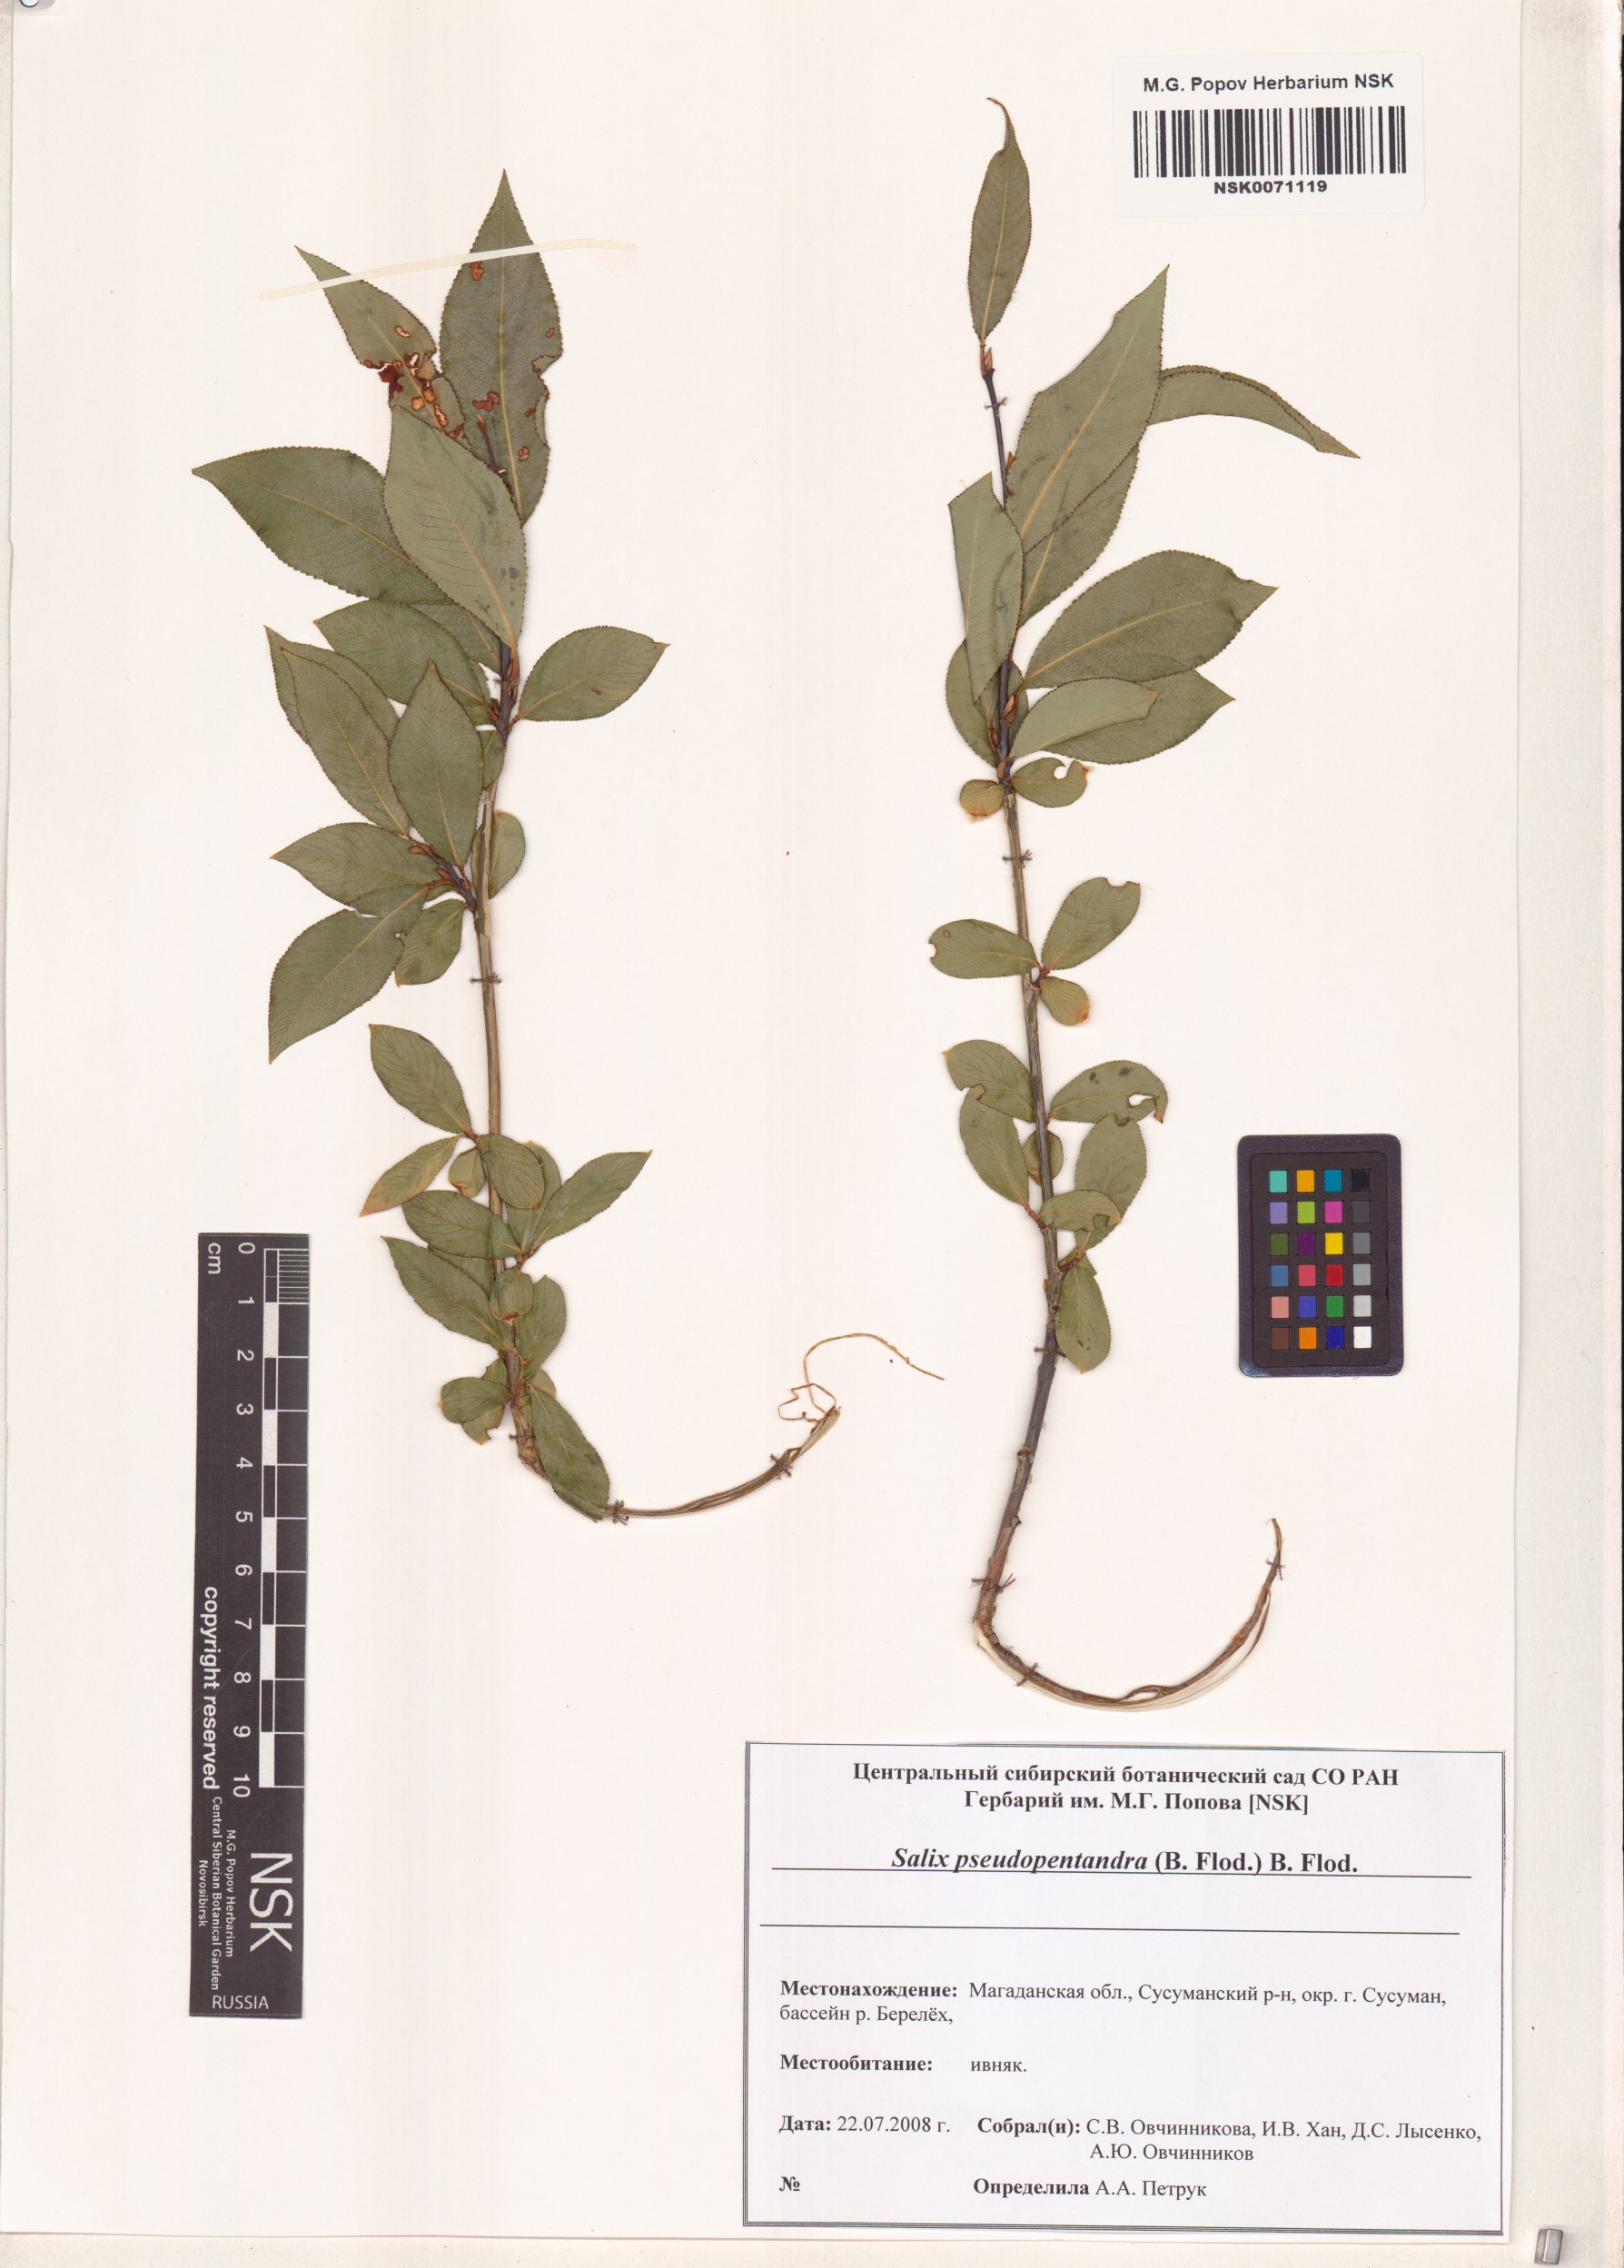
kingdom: Plantae
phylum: Tracheophyta
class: Magnoliopsida
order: Malpighiales
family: Salicaceae
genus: Salix
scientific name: Salix pseudopentandra
